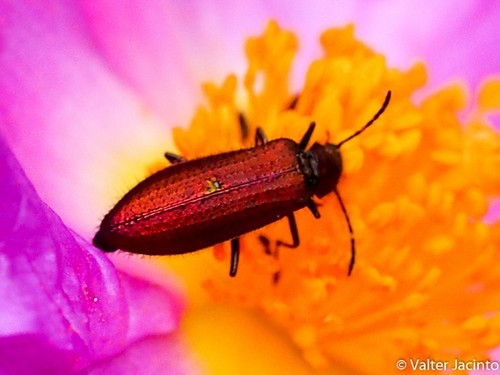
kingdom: Animalia
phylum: Arthropoda
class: Insecta
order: Coleoptera
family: Stenotrachelidae
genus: Stenotrachelus
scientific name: Stenotrachelus aeneus
